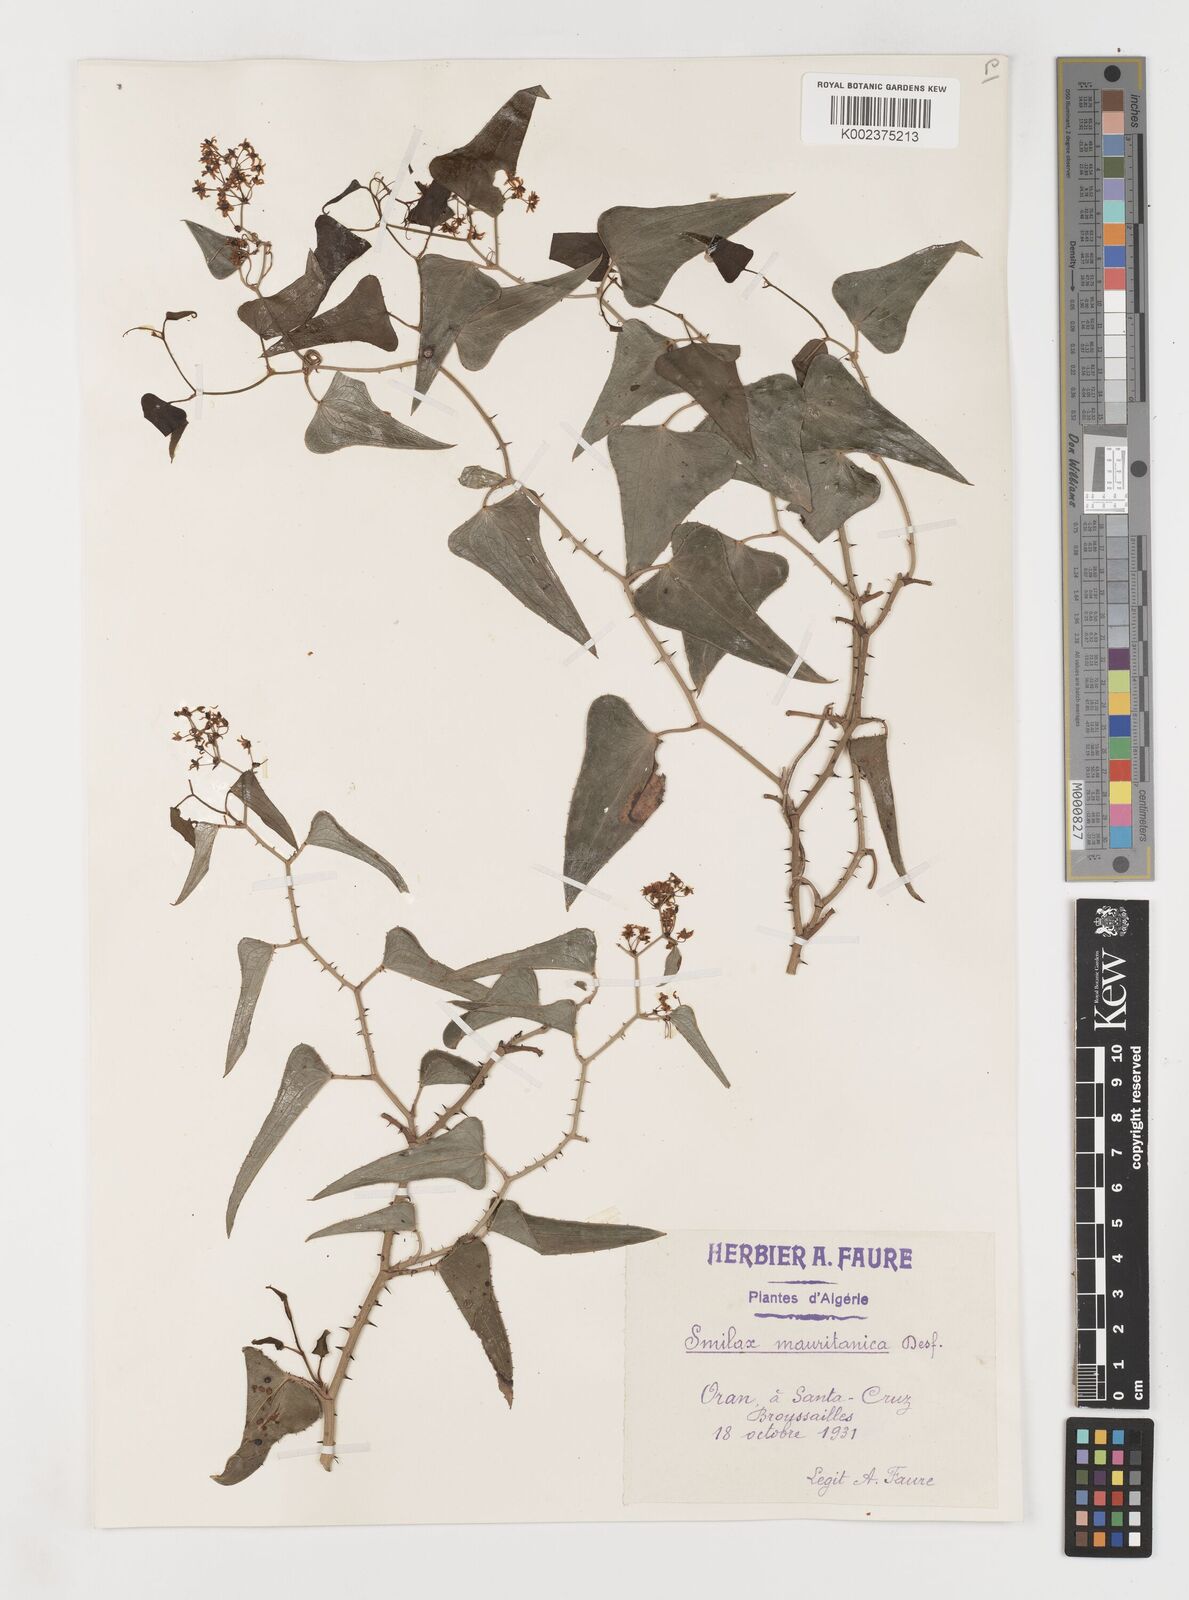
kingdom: Plantae
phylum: Tracheophyta
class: Liliopsida
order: Liliales
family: Smilacaceae
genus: Smilax
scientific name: Smilax aspera
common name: Common smilax
